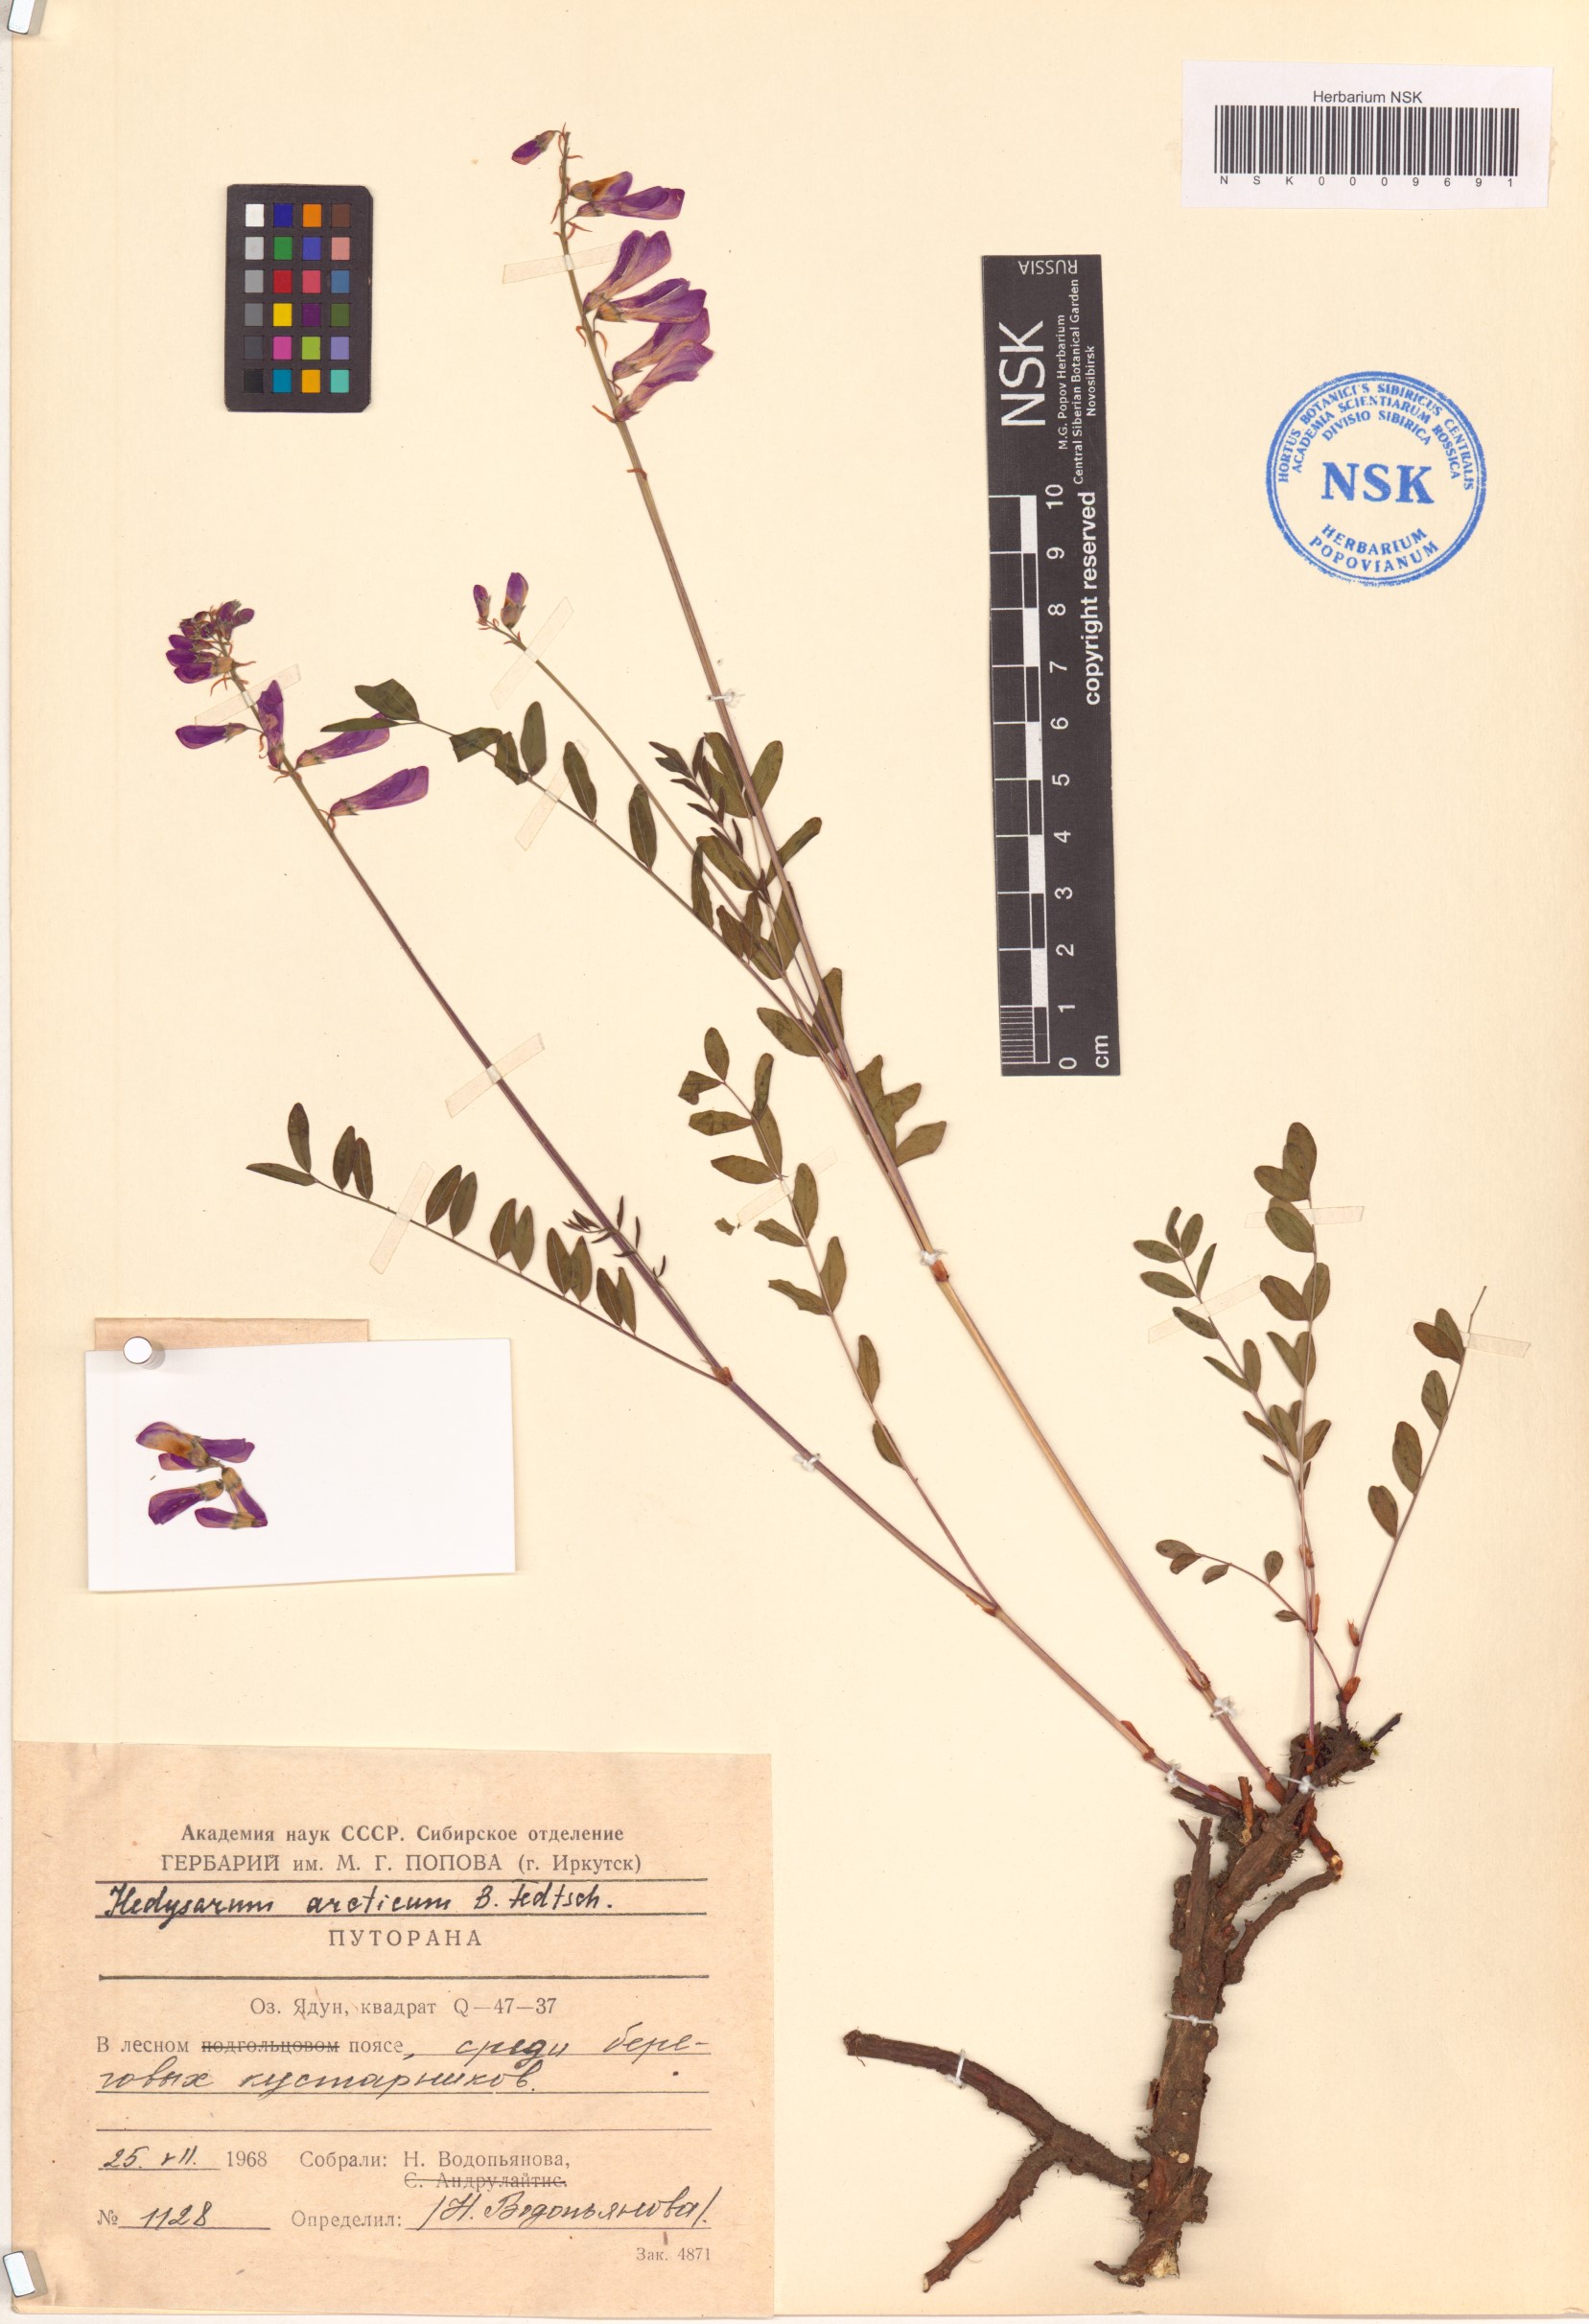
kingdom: Plantae
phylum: Tracheophyta
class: Magnoliopsida
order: Fabales
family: Fabaceae
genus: Hedysarum
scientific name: Hedysarum hedysaroides
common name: Alpine french-honeysuckle
